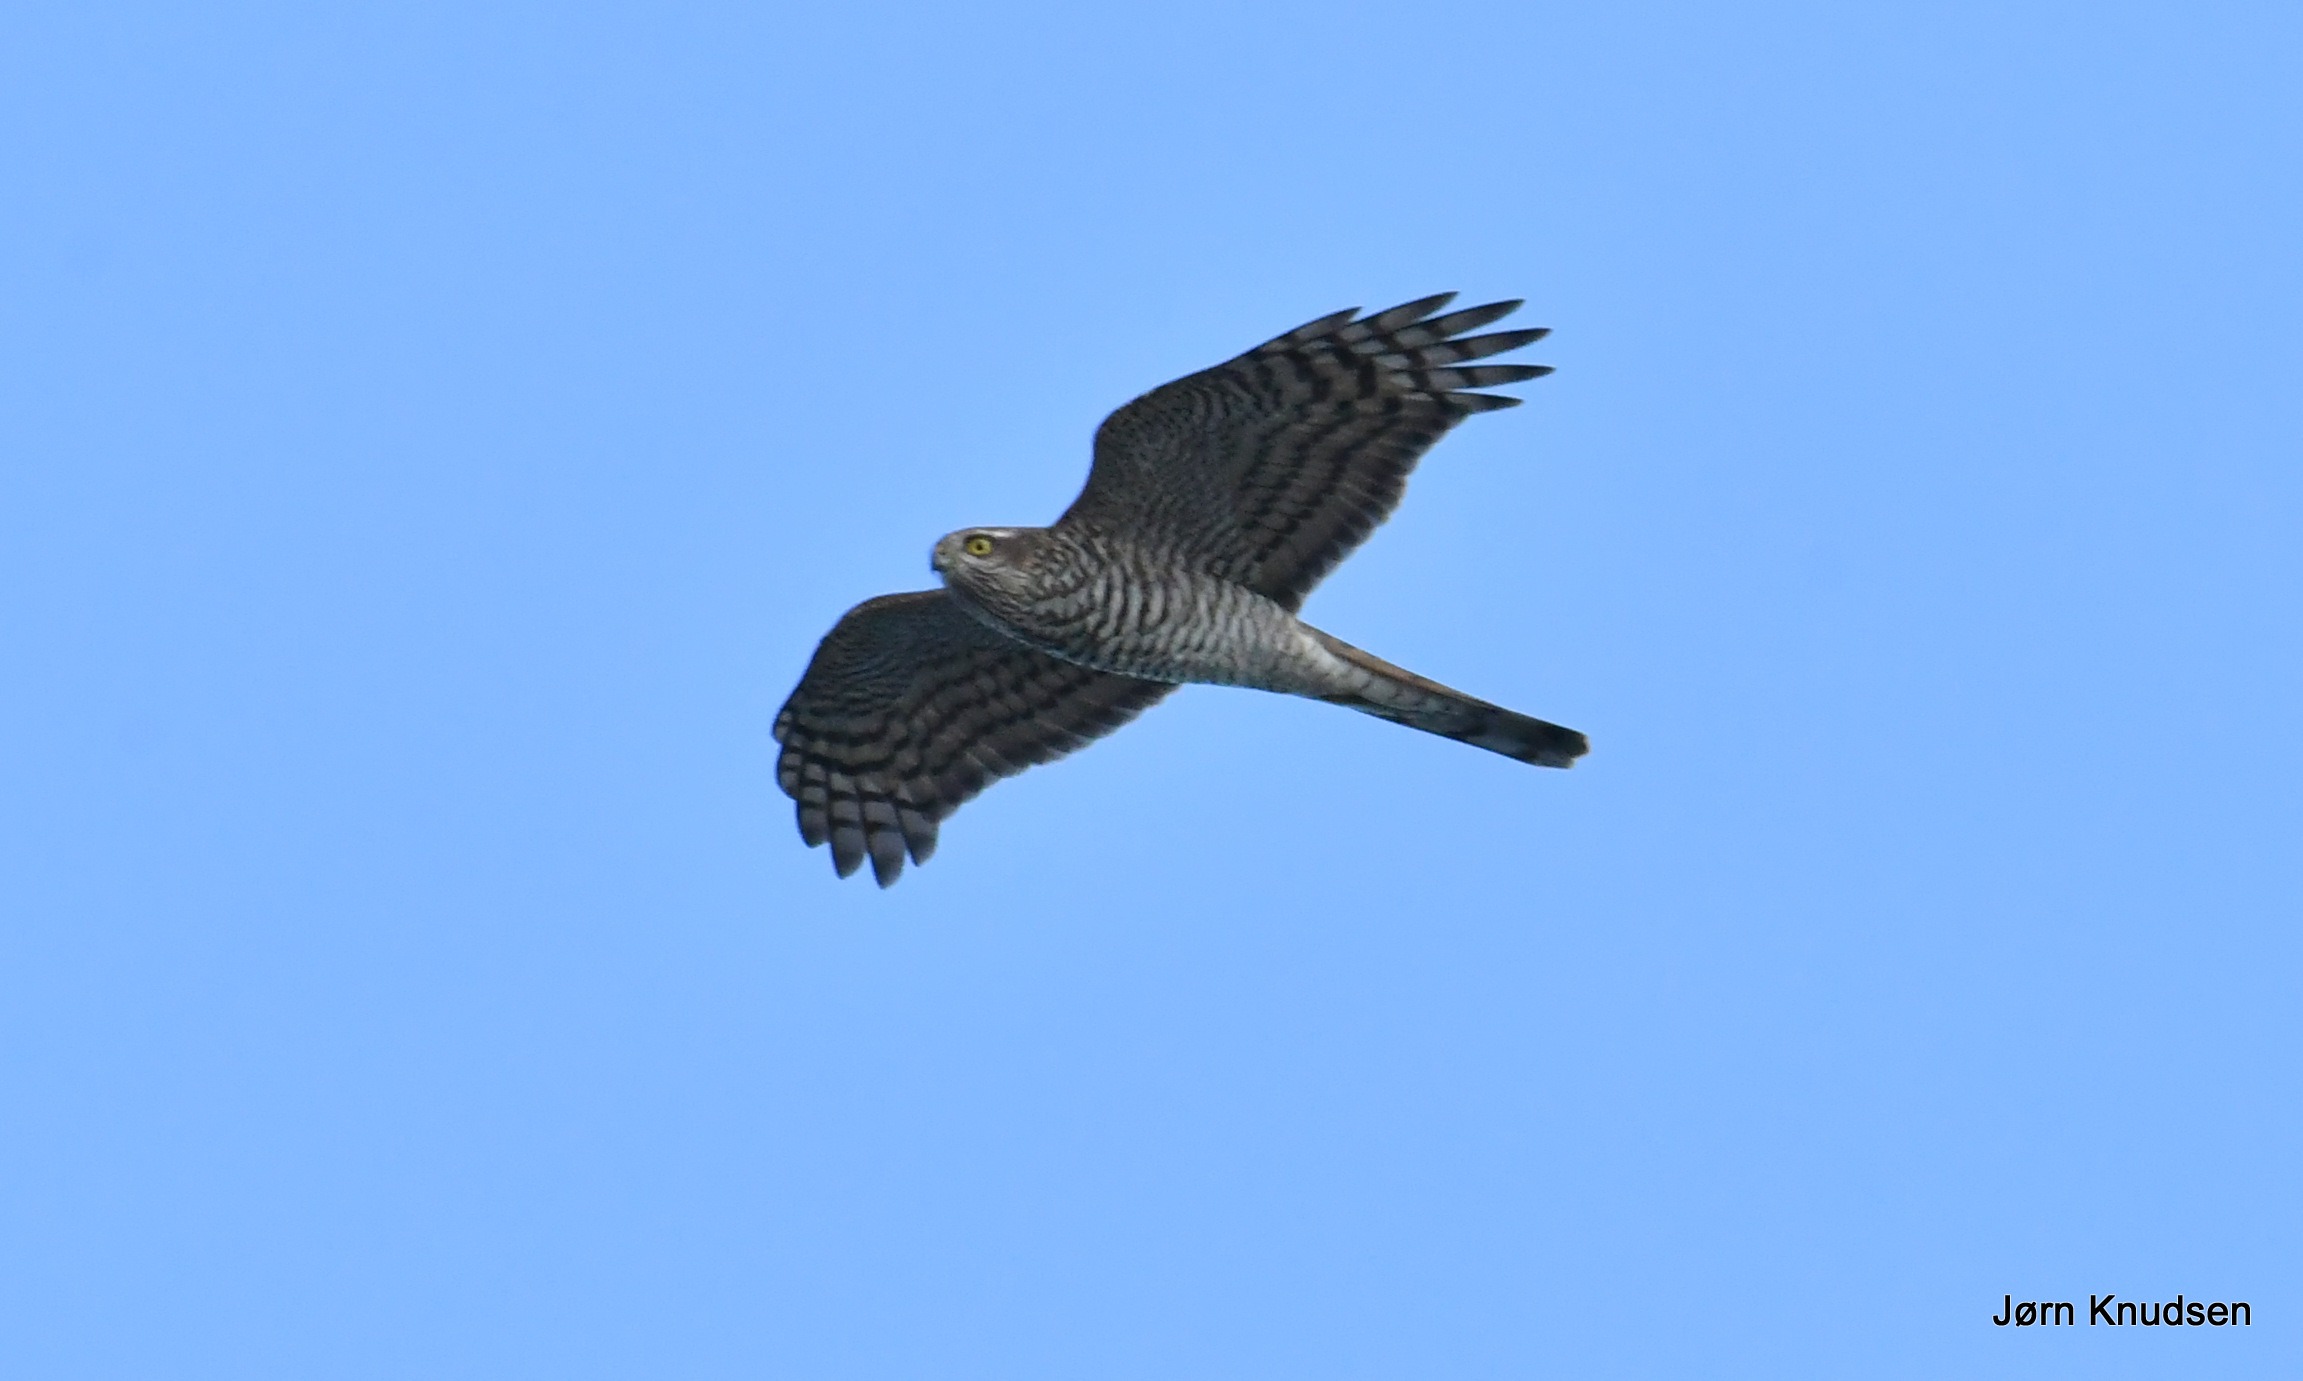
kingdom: Animalia
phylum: Chordata
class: Aves
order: Accipitriformes
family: Accipitridae
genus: Accipiter
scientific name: Accipiter nisus
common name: Spurvehøg
